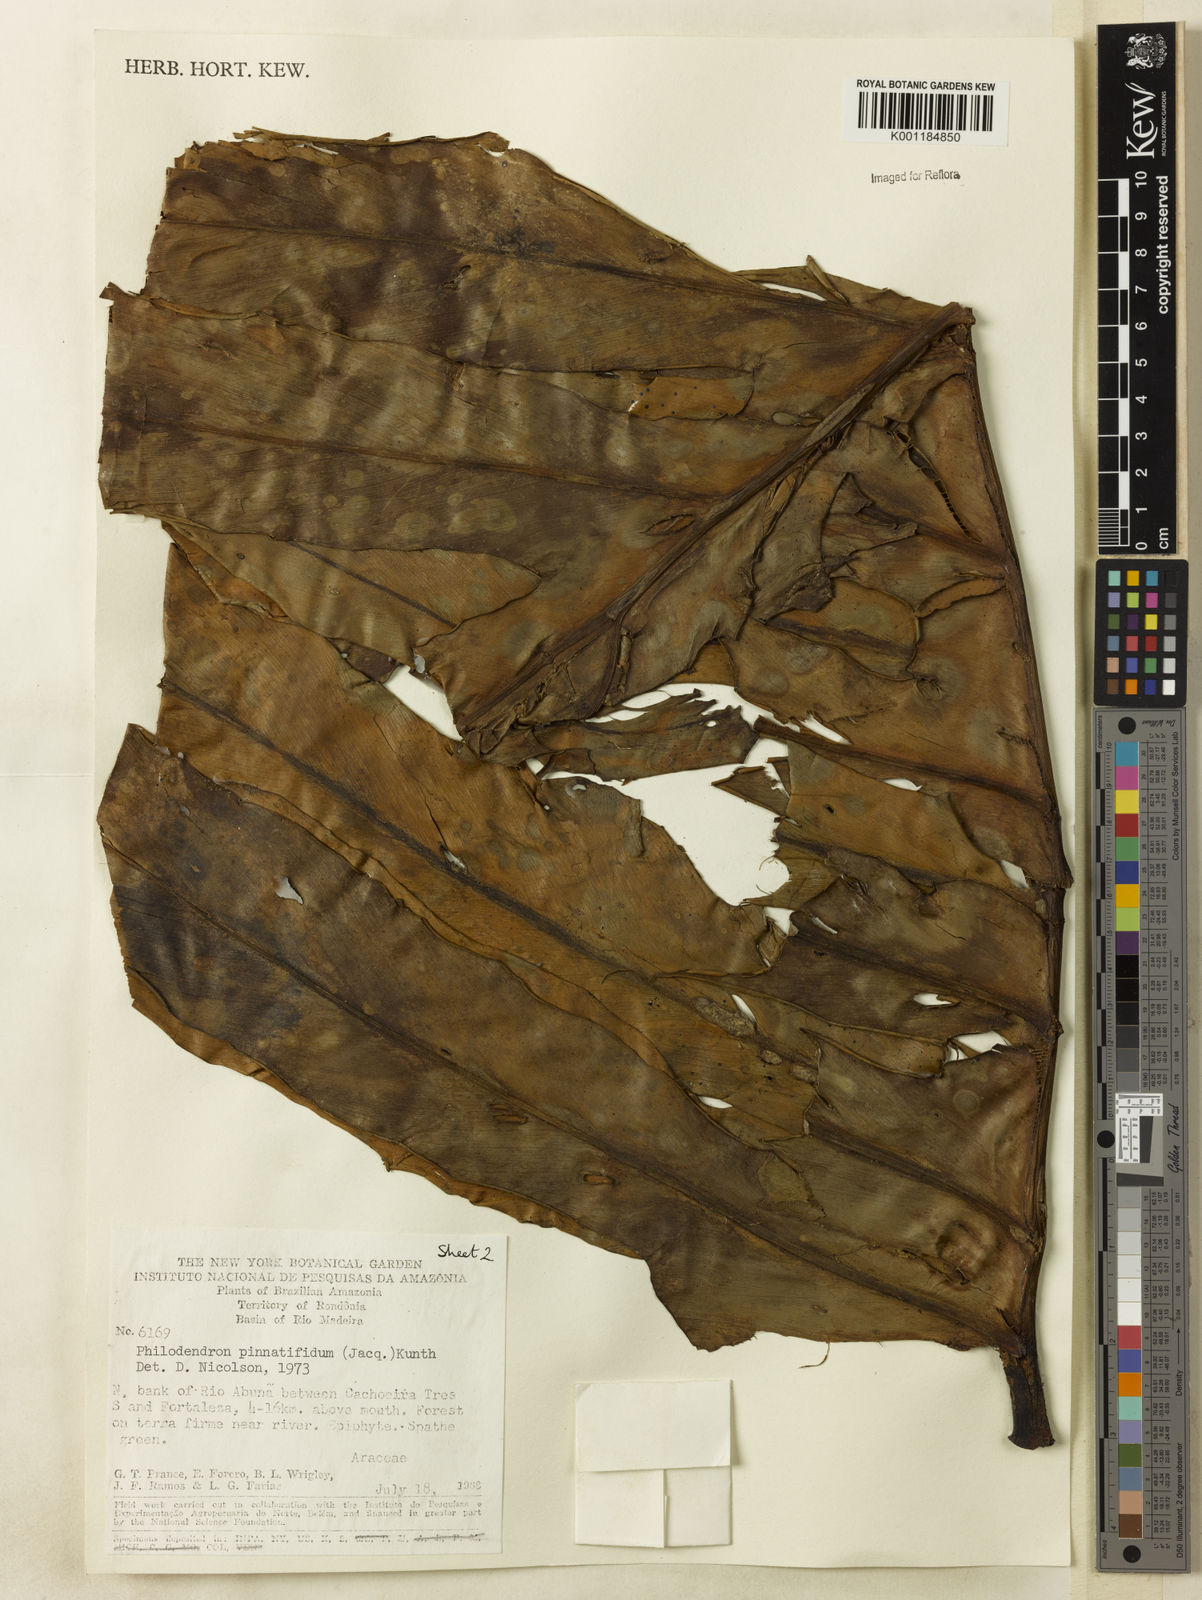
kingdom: Plantae
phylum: Tracheophyta
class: Liliopsida
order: Alismatales
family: Araceae
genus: Philodendron
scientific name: Philodendron
